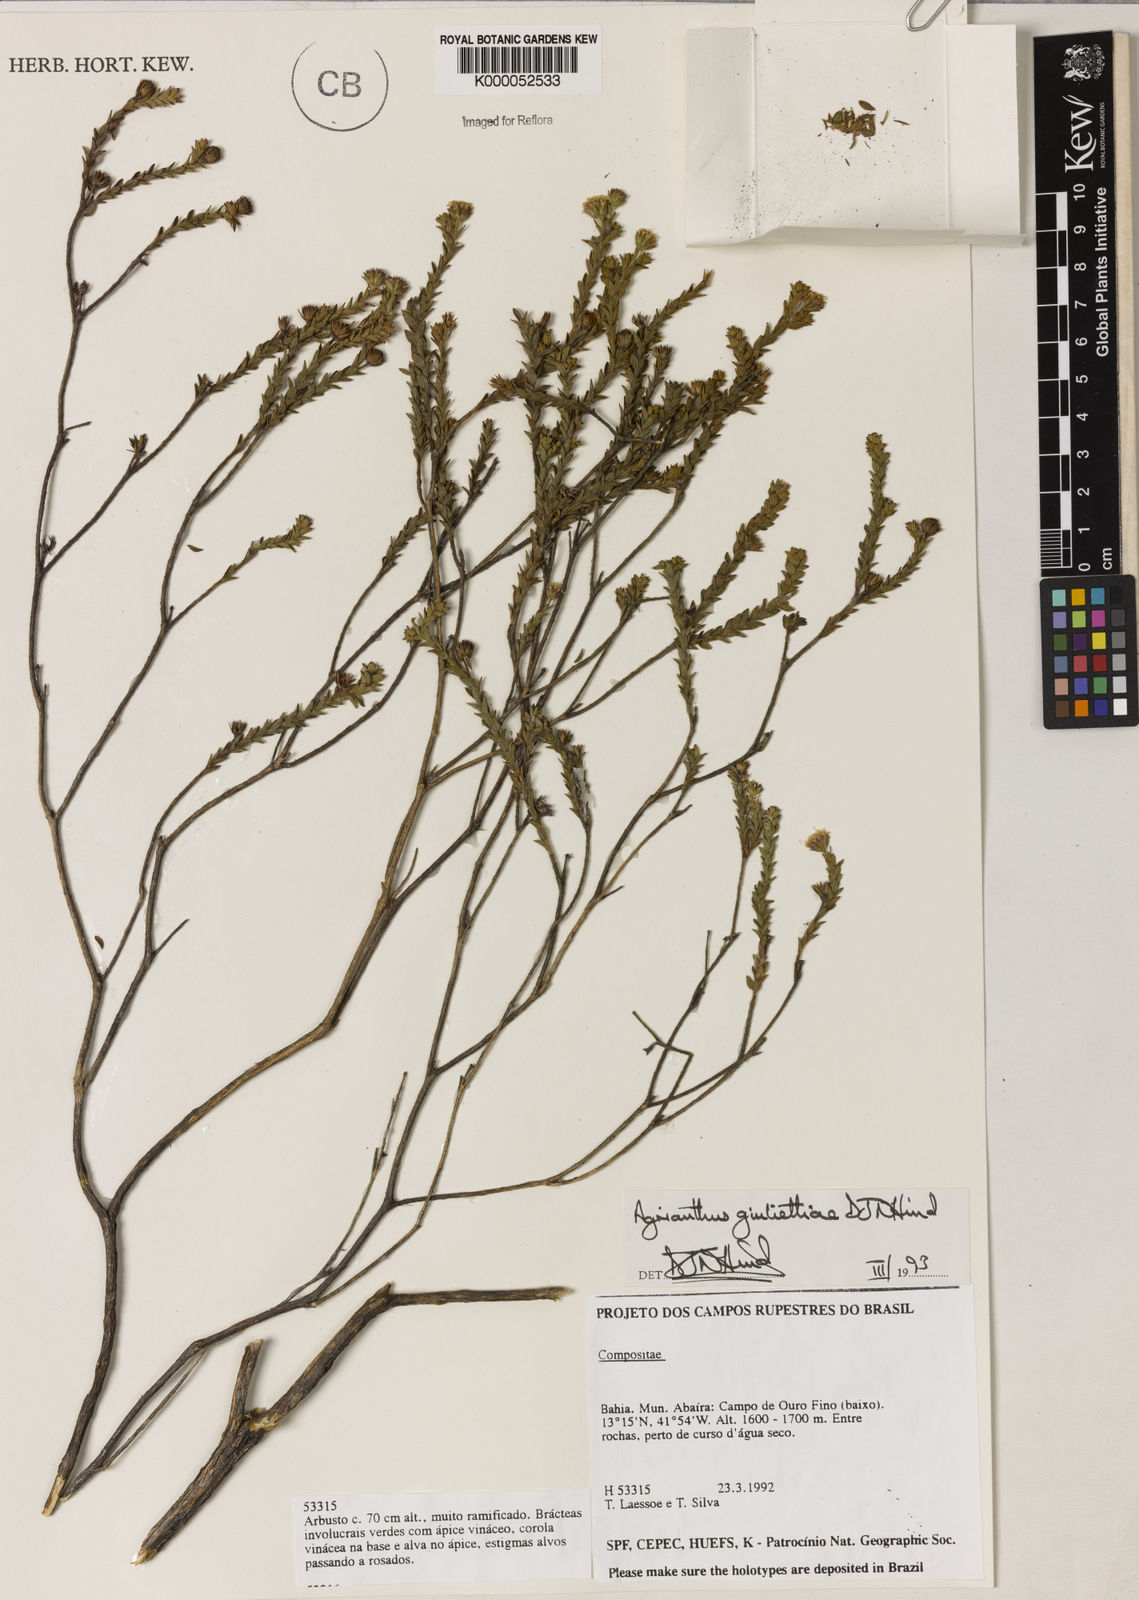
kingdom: Plantae
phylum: Tracheophyta
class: Magnoliopsida
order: Asterales
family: Asteraceae
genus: Agrianthus
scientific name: Agrianthus giuliettiae
